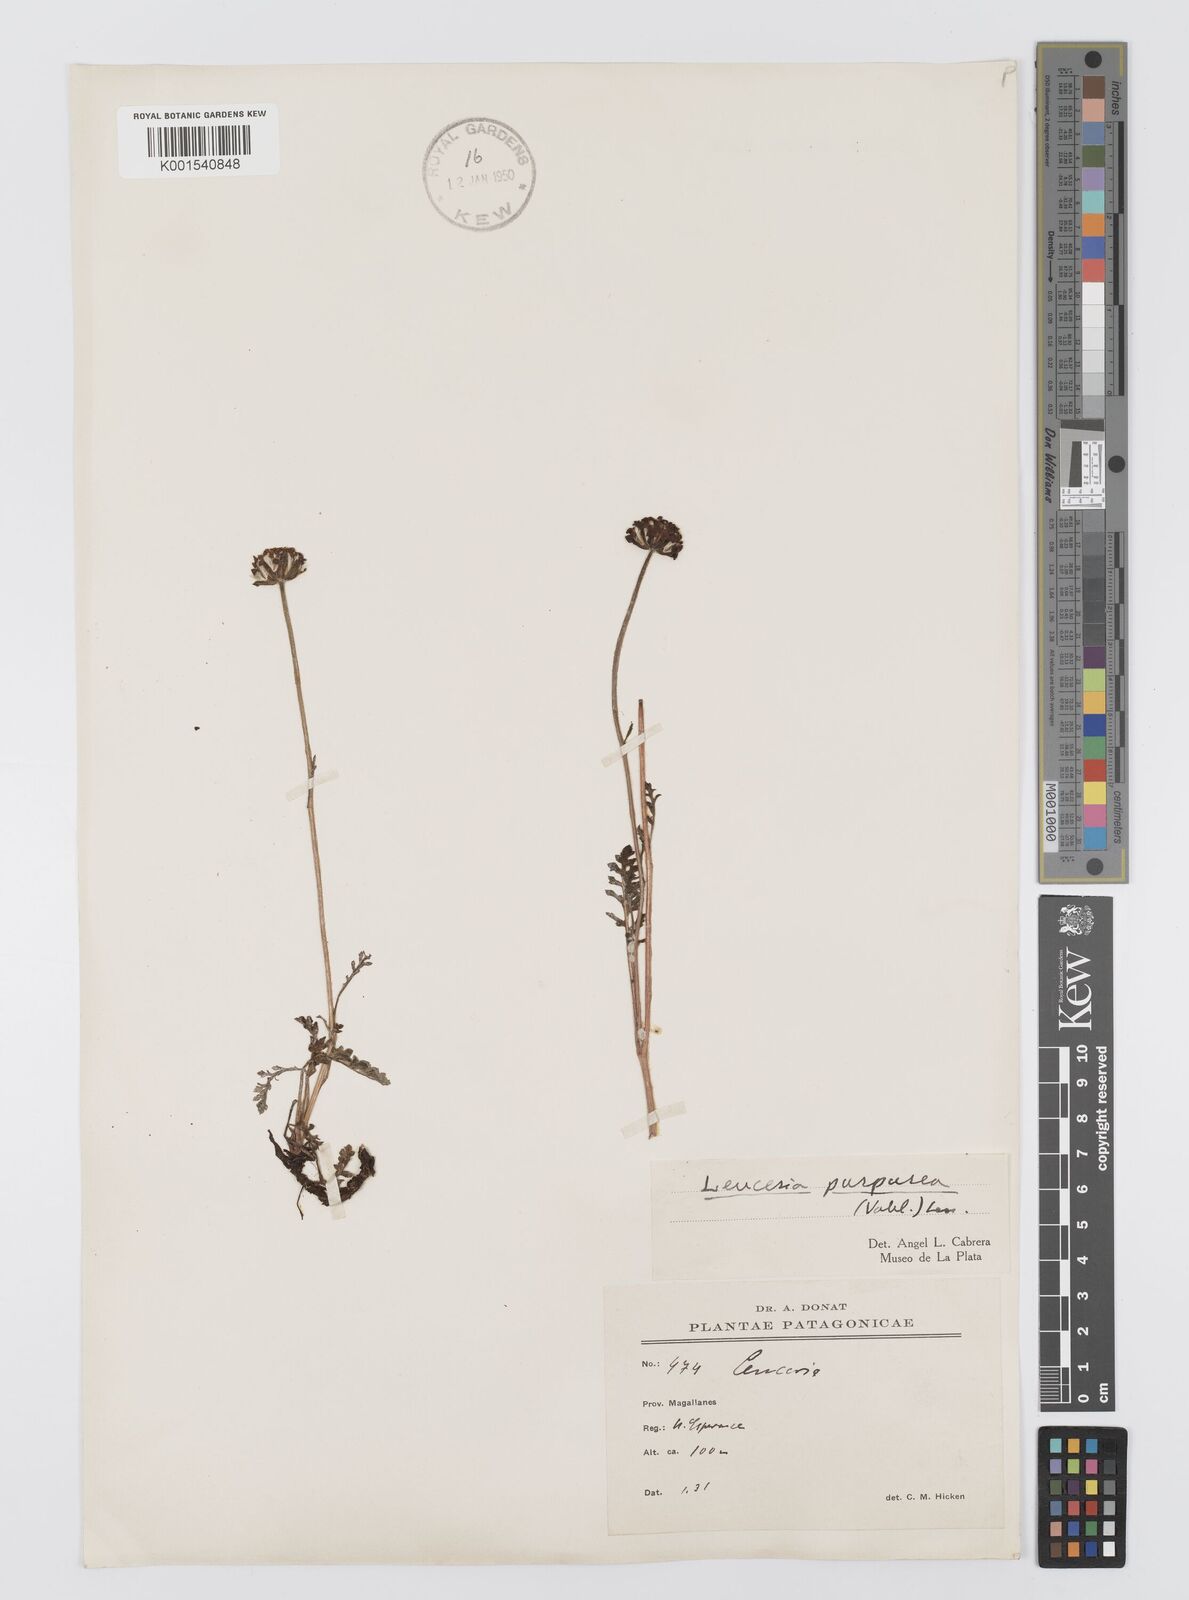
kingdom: Plantae
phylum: Tracheophyta
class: Magnoliopsida
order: Asterales
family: Asteraceae
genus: Leucheria
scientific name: Leucheria purpurea
